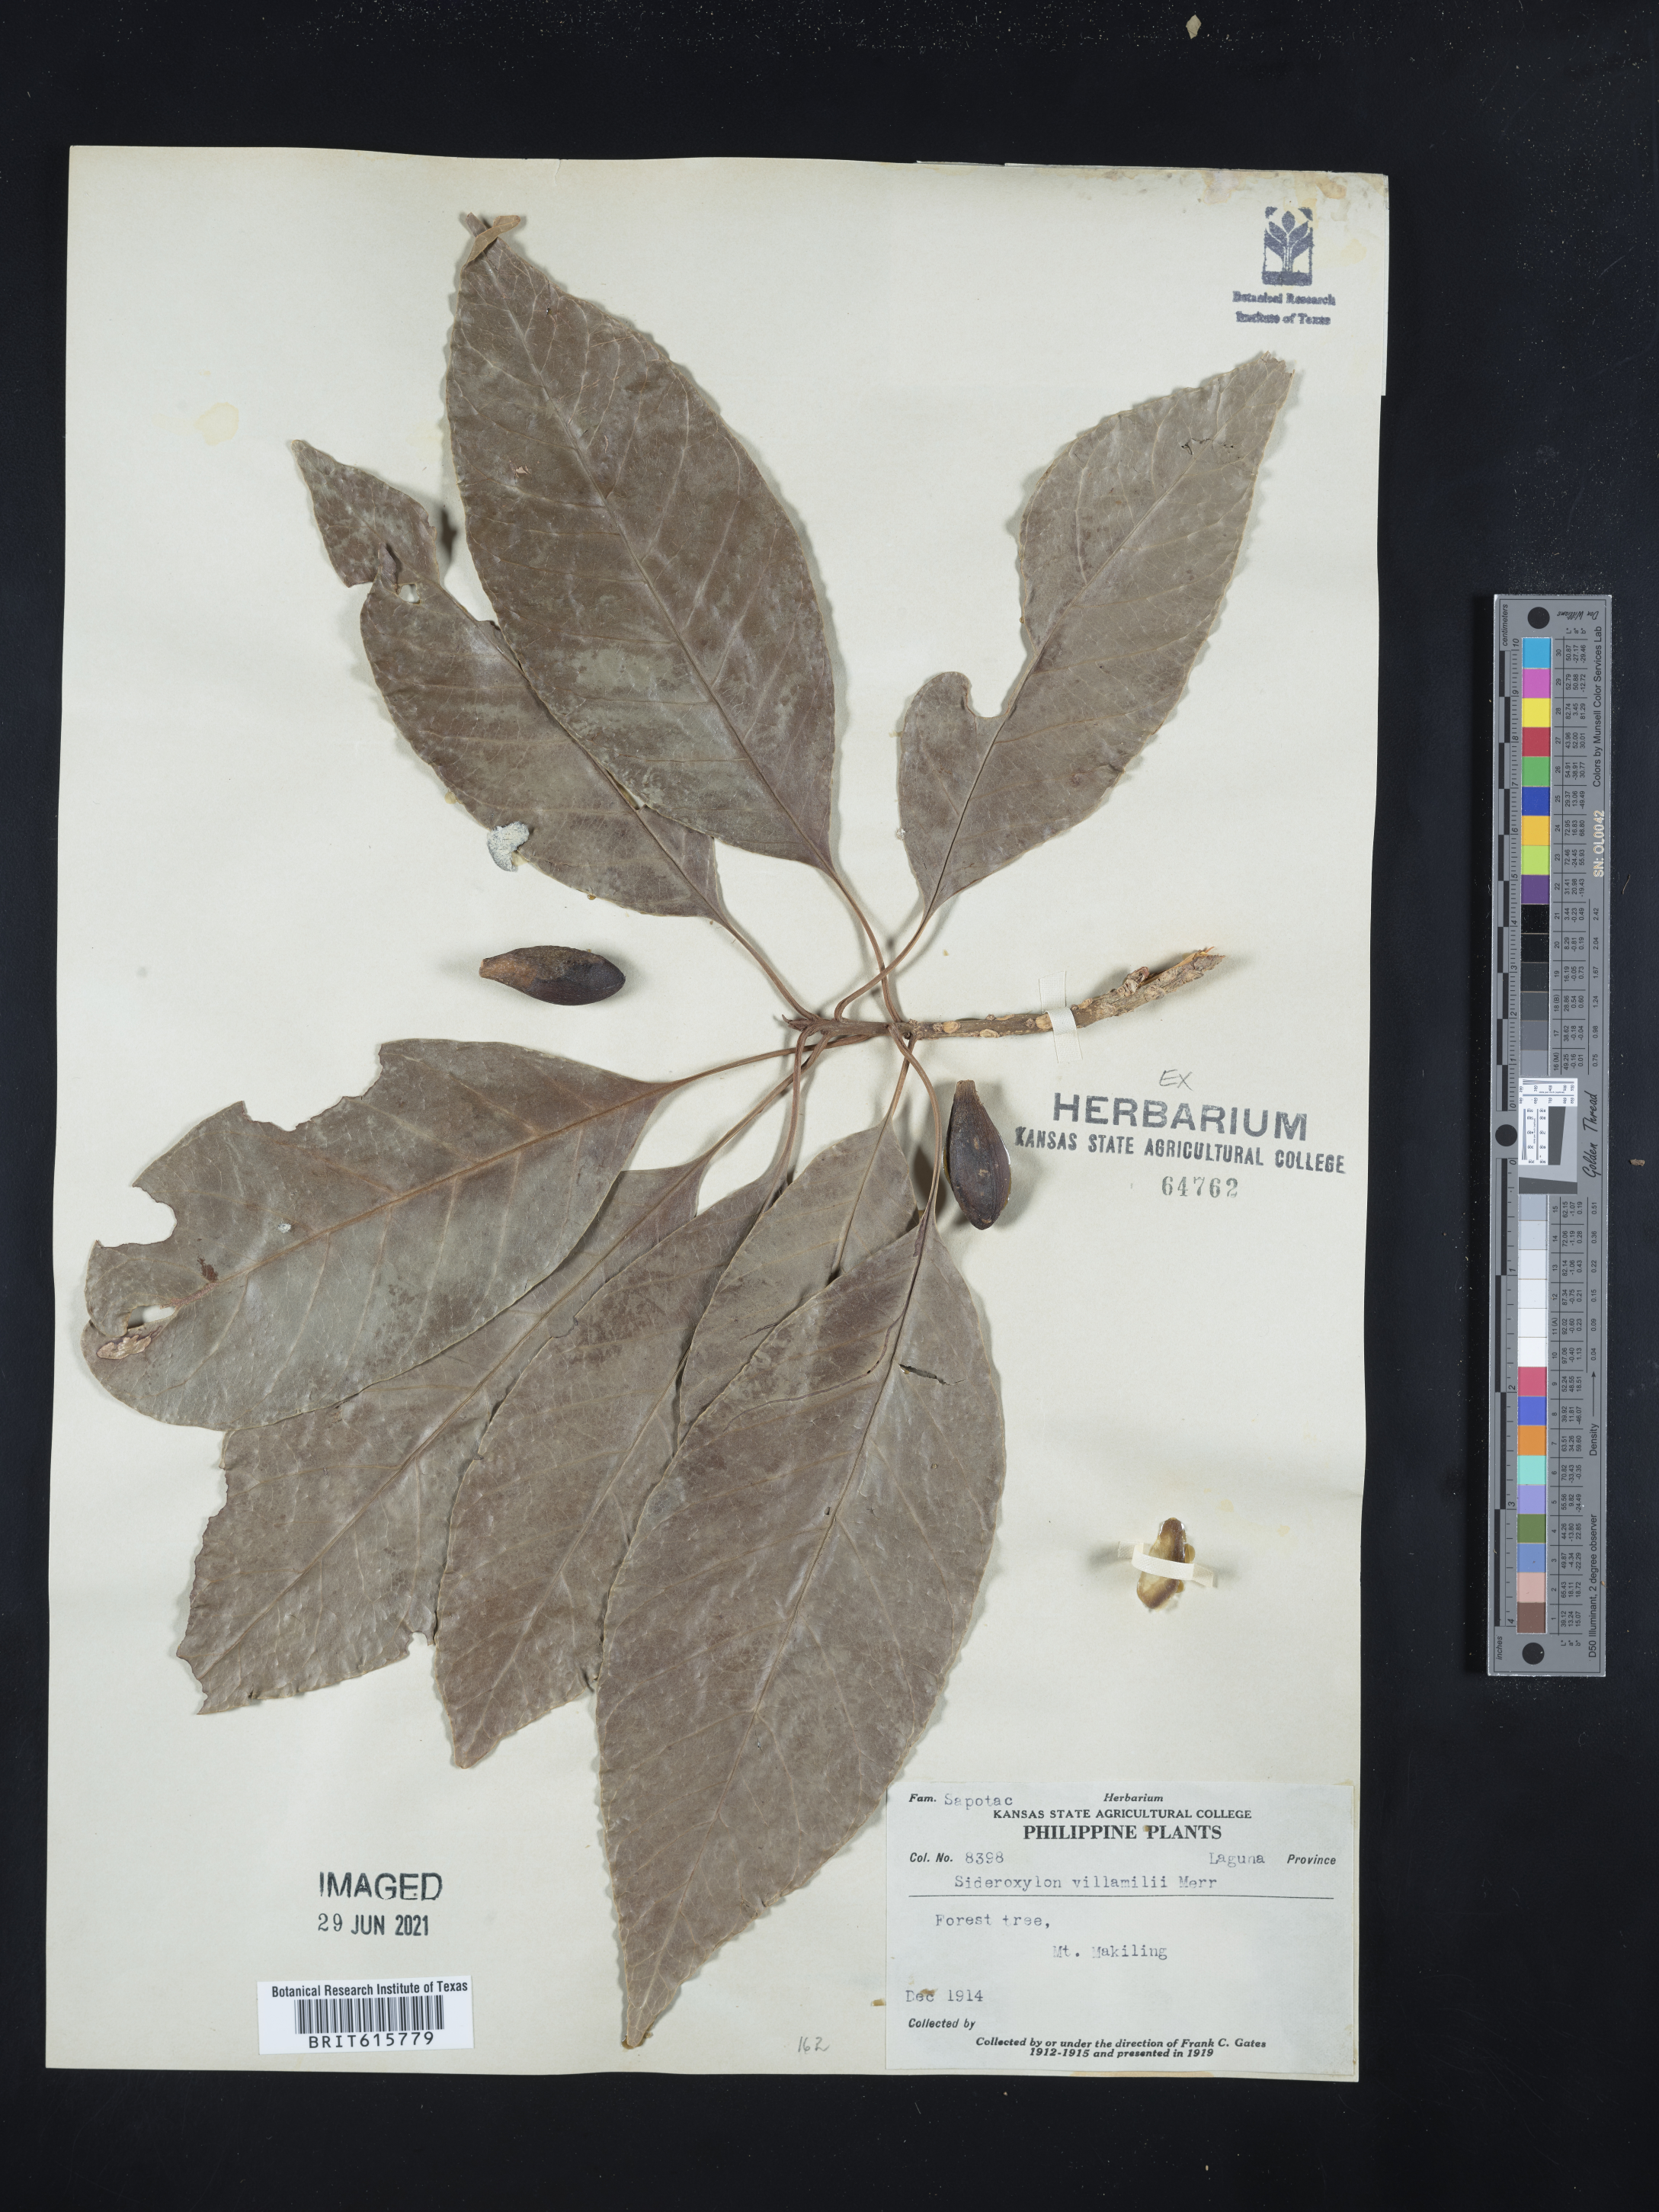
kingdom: Plantae
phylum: Tracheophyta
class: Magnoliopsida
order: Ericales
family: Sapotaceae
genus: Planchonella
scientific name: Planchonella villamilii
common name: White nato
